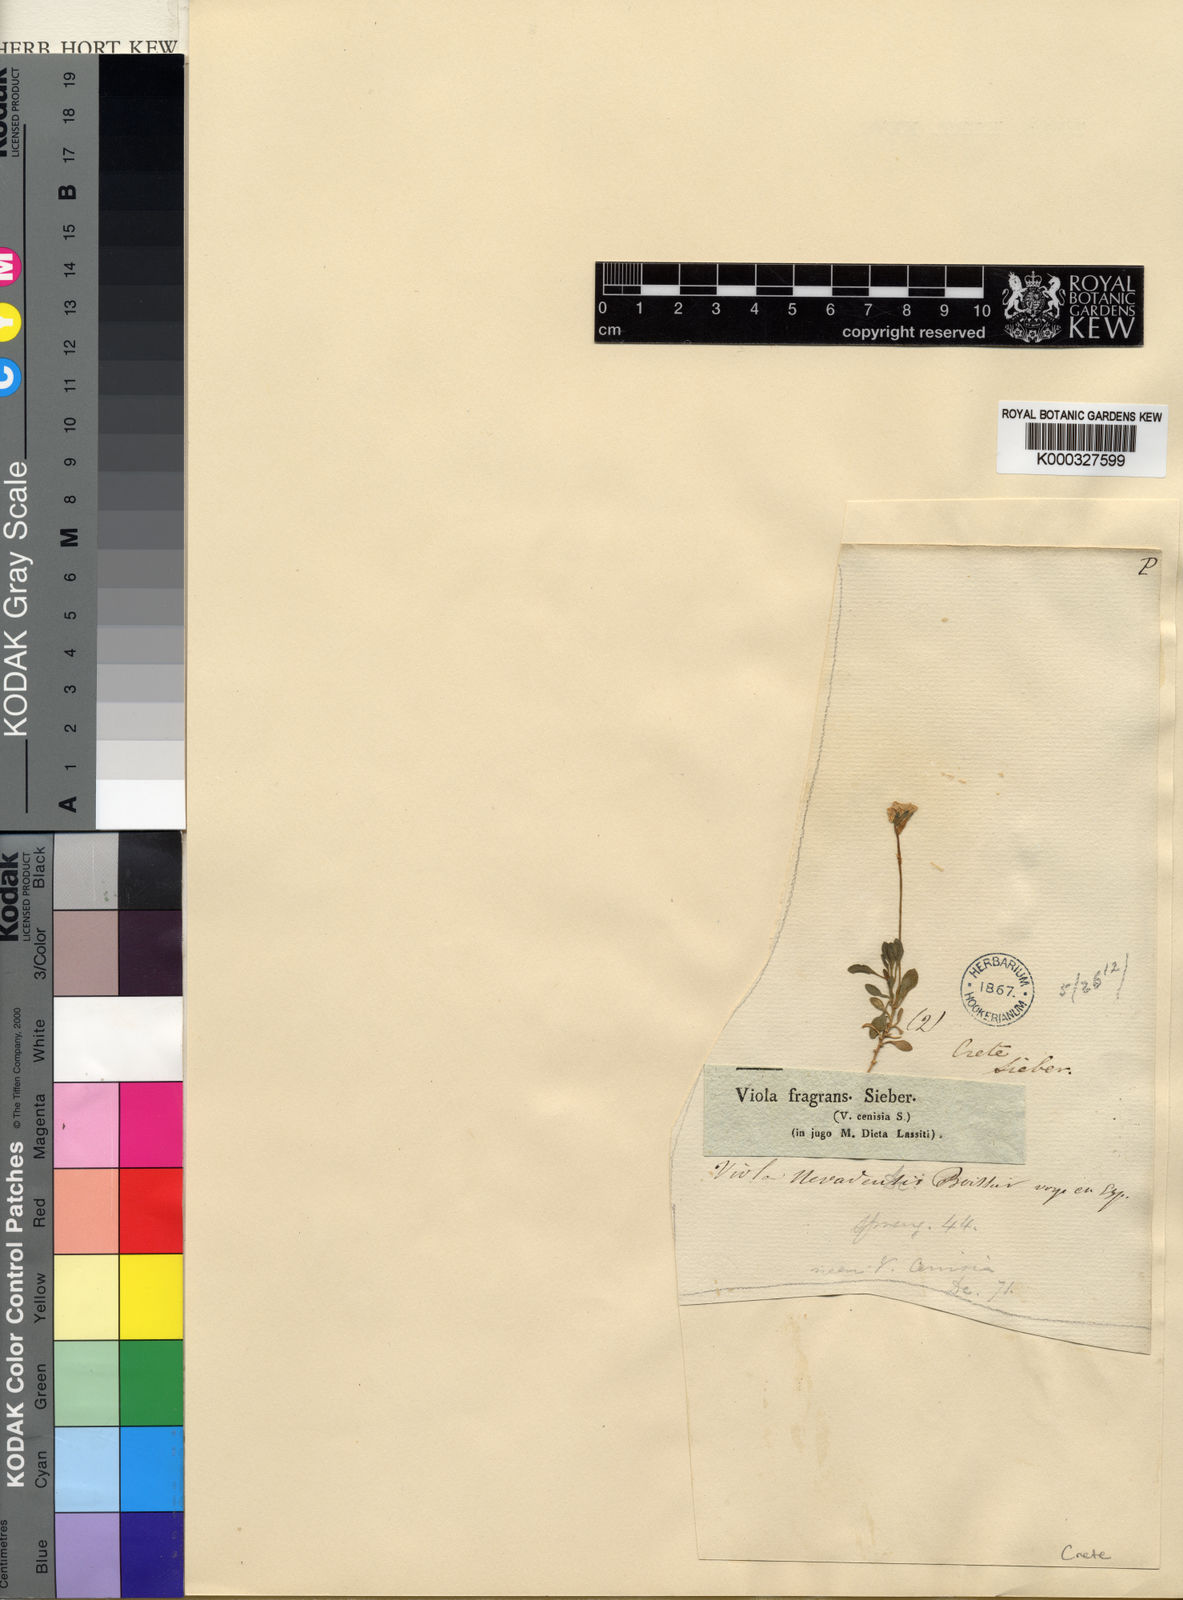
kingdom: Plantae
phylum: Tracheophyta
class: Magnoliopsida
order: Malpighiales
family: Violaceae
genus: Viola
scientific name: Viola fragrans
